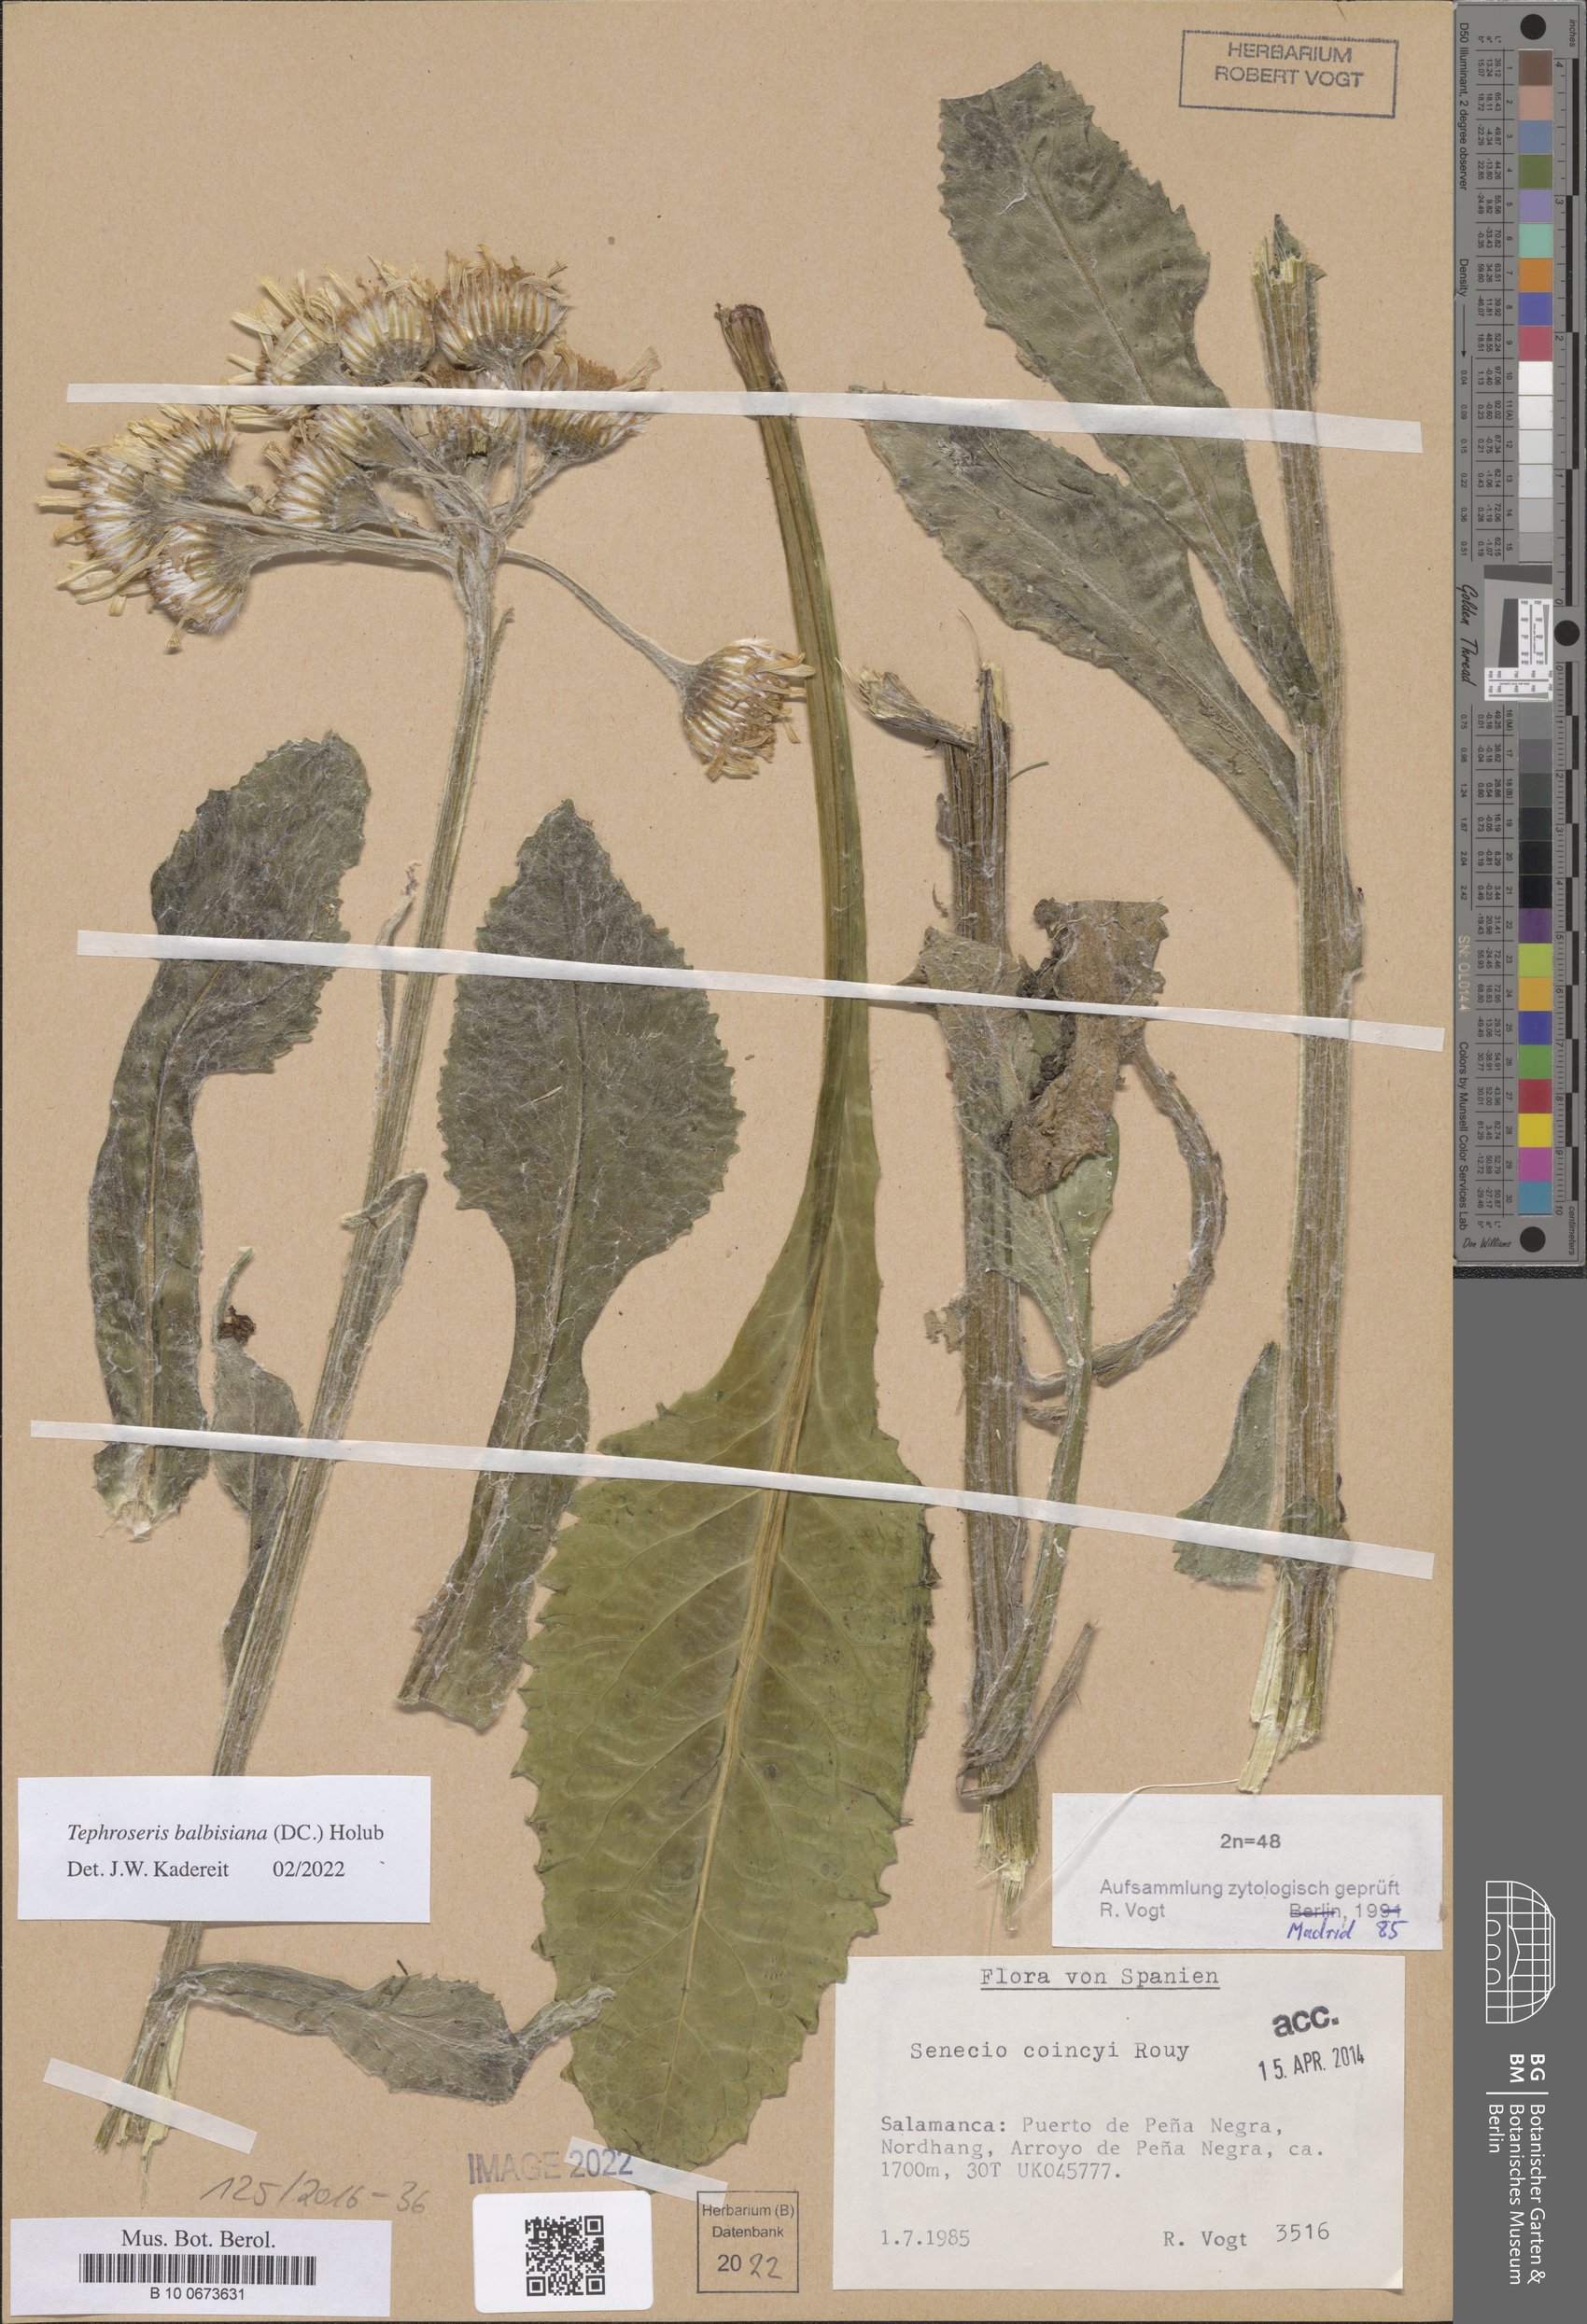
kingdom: Plantae
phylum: Tracheophyta
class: Magnoliopsida
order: Asterales
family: Asteraceae
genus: Tephroseris
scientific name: Tephroseris balbisiana
